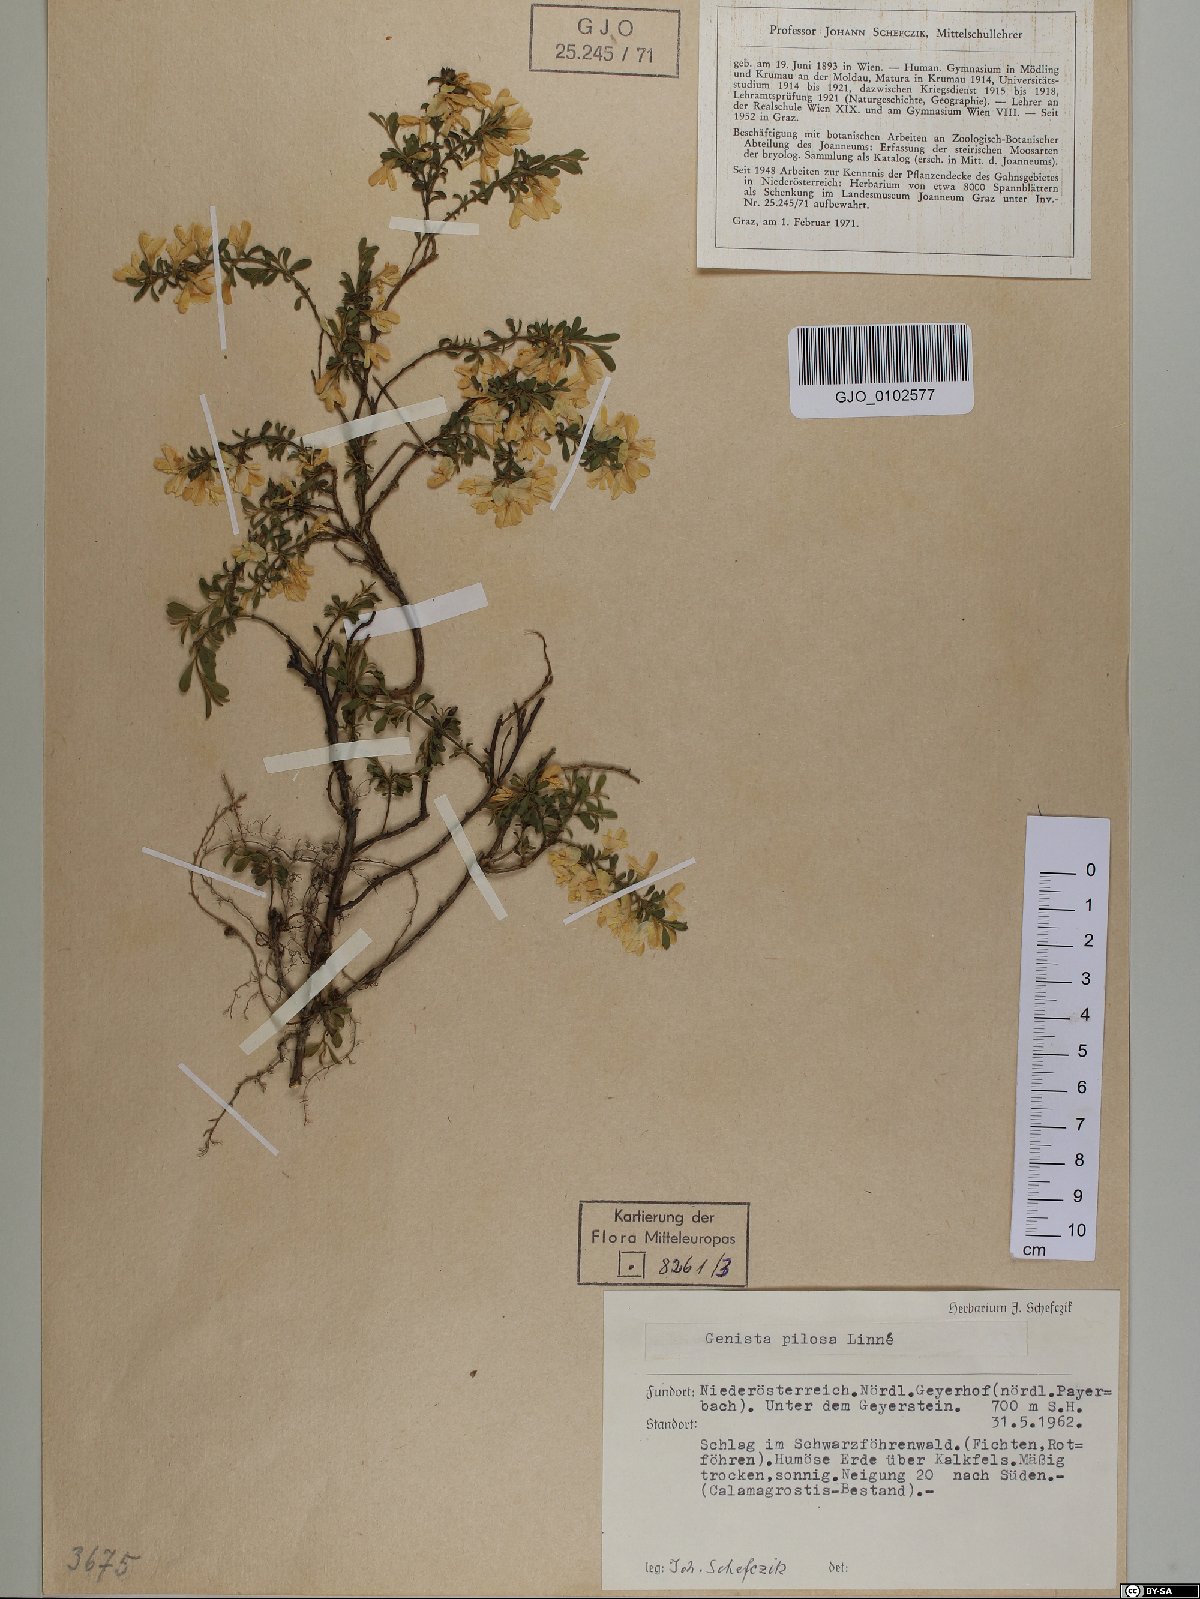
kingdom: Plantae
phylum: Tracheophyta
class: Magnoliopsida
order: Fabales
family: Fabaceae
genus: Genista
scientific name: Genista pilosa
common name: Hairy greenweed
